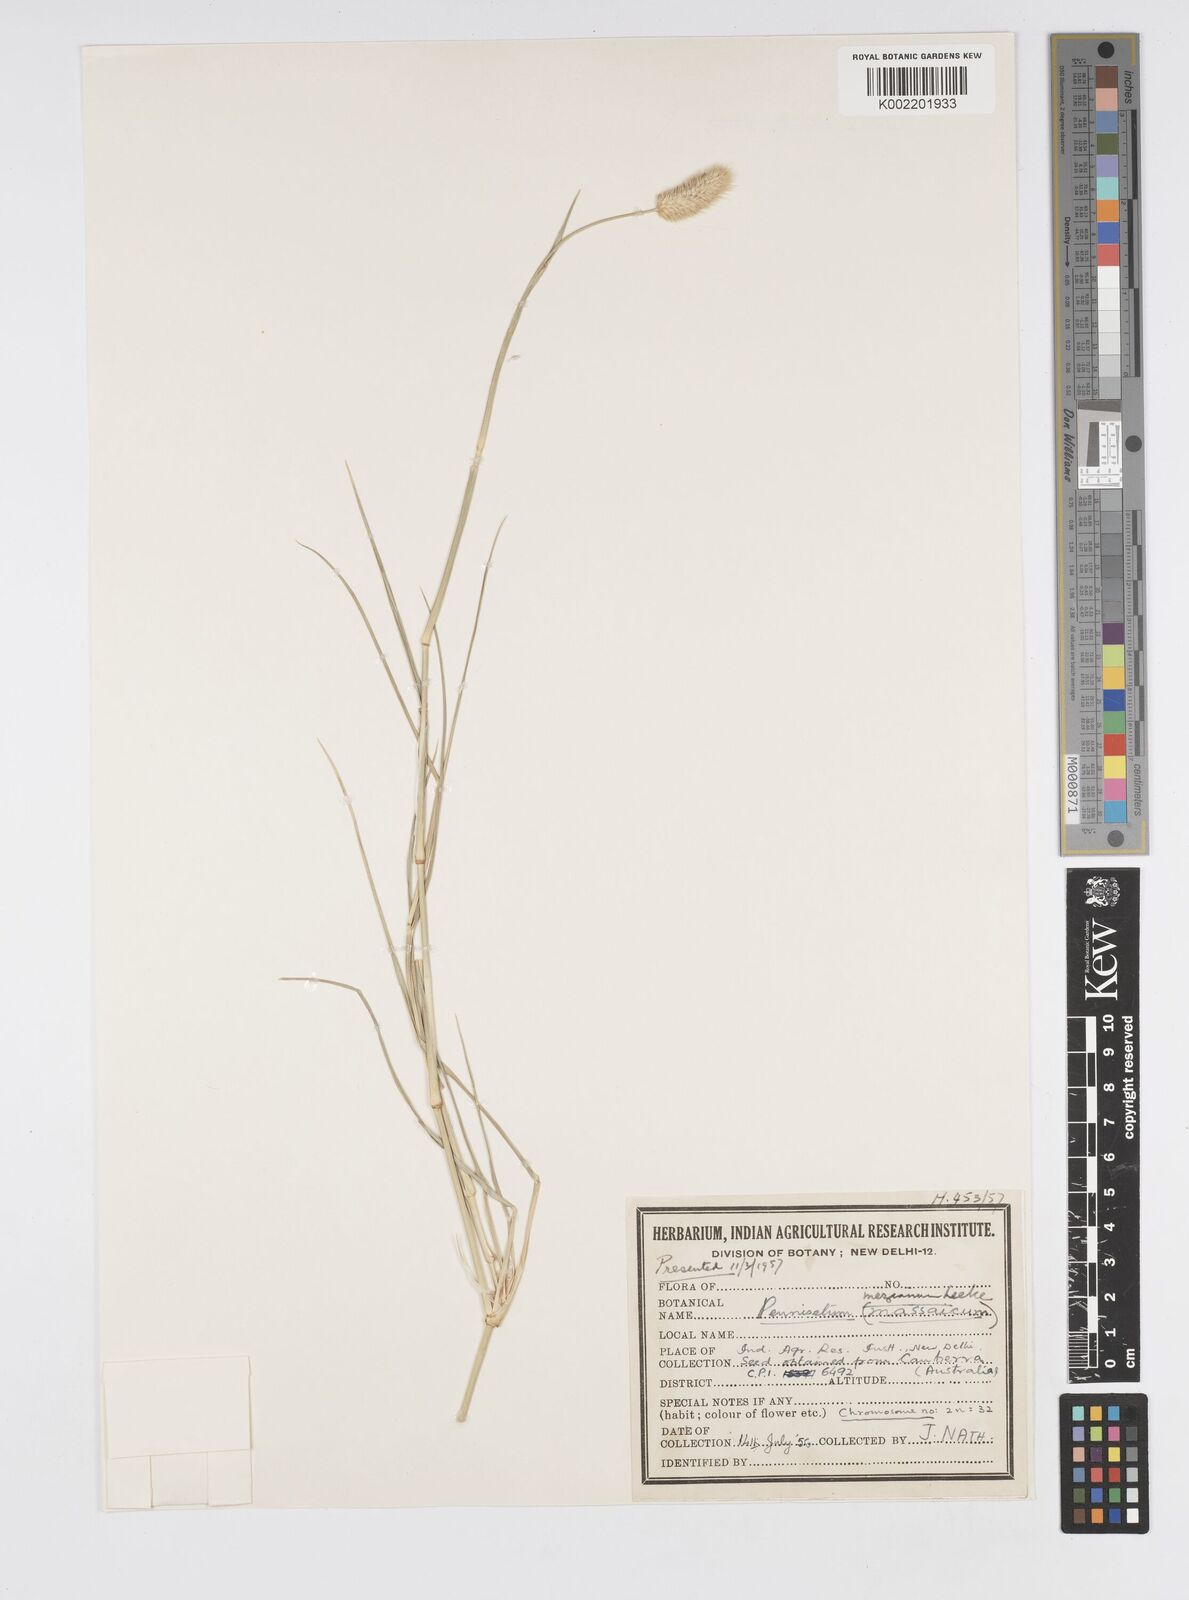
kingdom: Plantae
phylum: Tracheophyta
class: Liliopsida
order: Poales
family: Poaceae
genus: Cenchrus
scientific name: Cenchrus mezianus
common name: Bamboo grass
